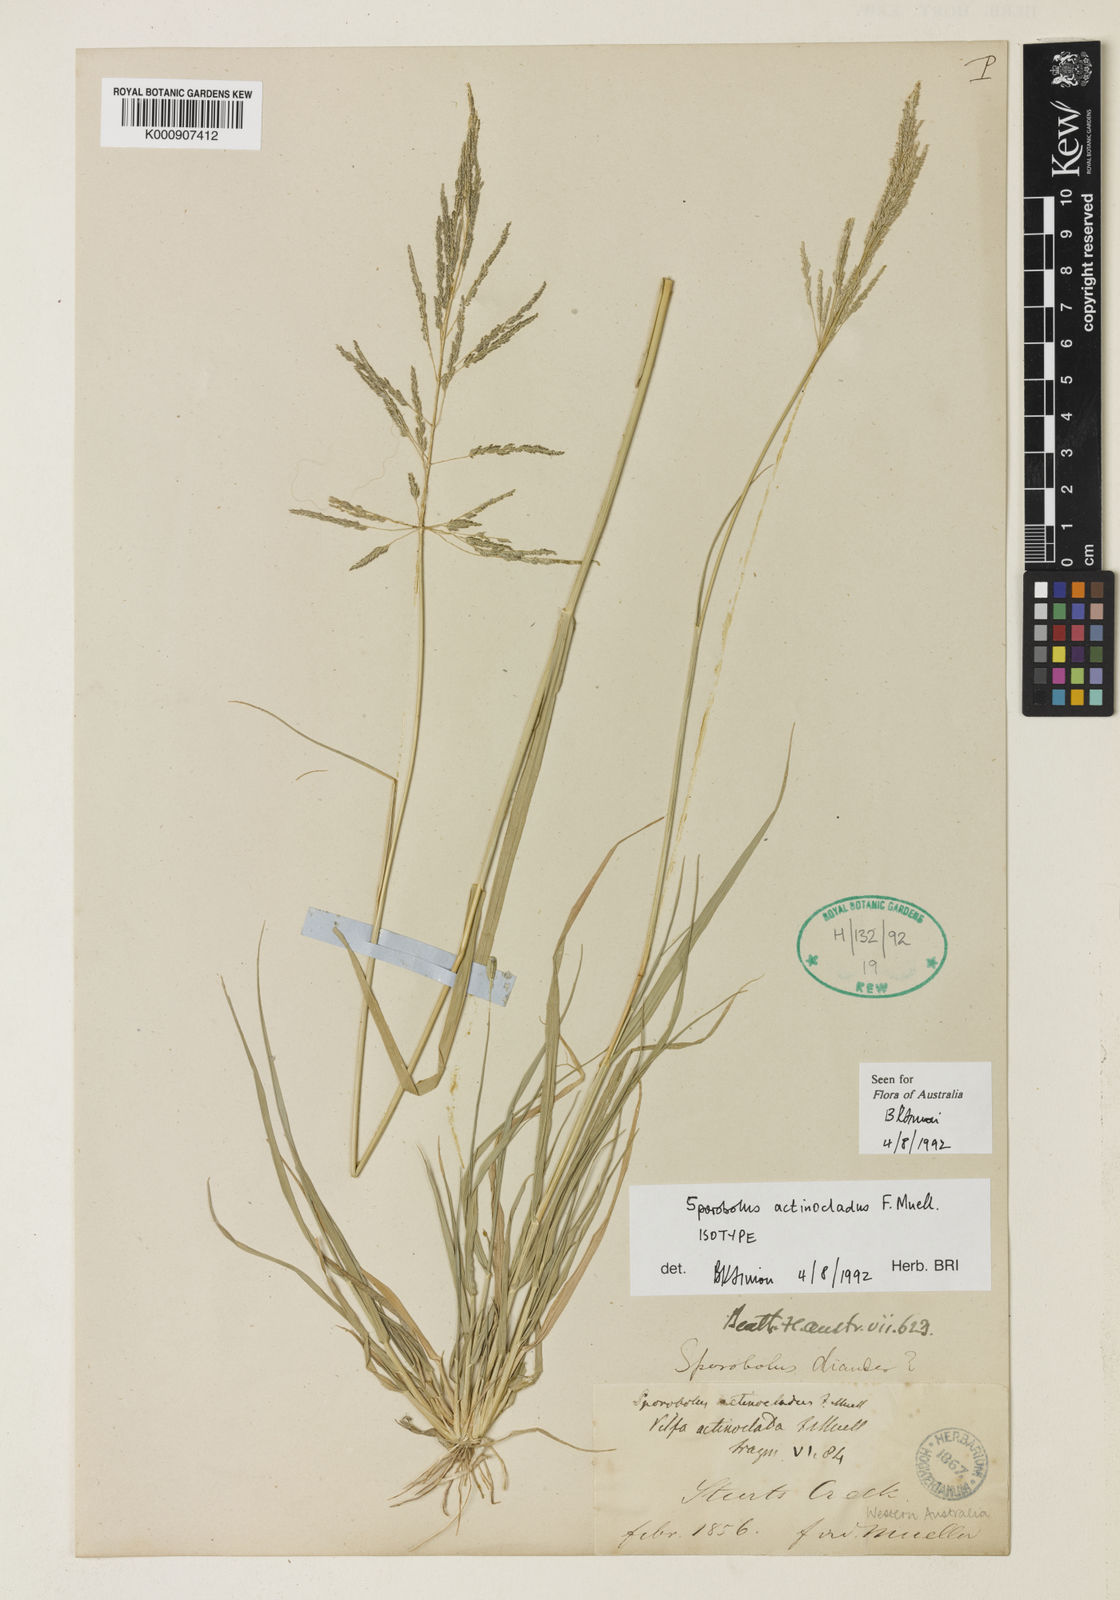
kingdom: Plantae
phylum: Tracheophyta
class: Liliopsida
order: Poales
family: Poaceae
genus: Sporobolus
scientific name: Sporobolus actinocladus
